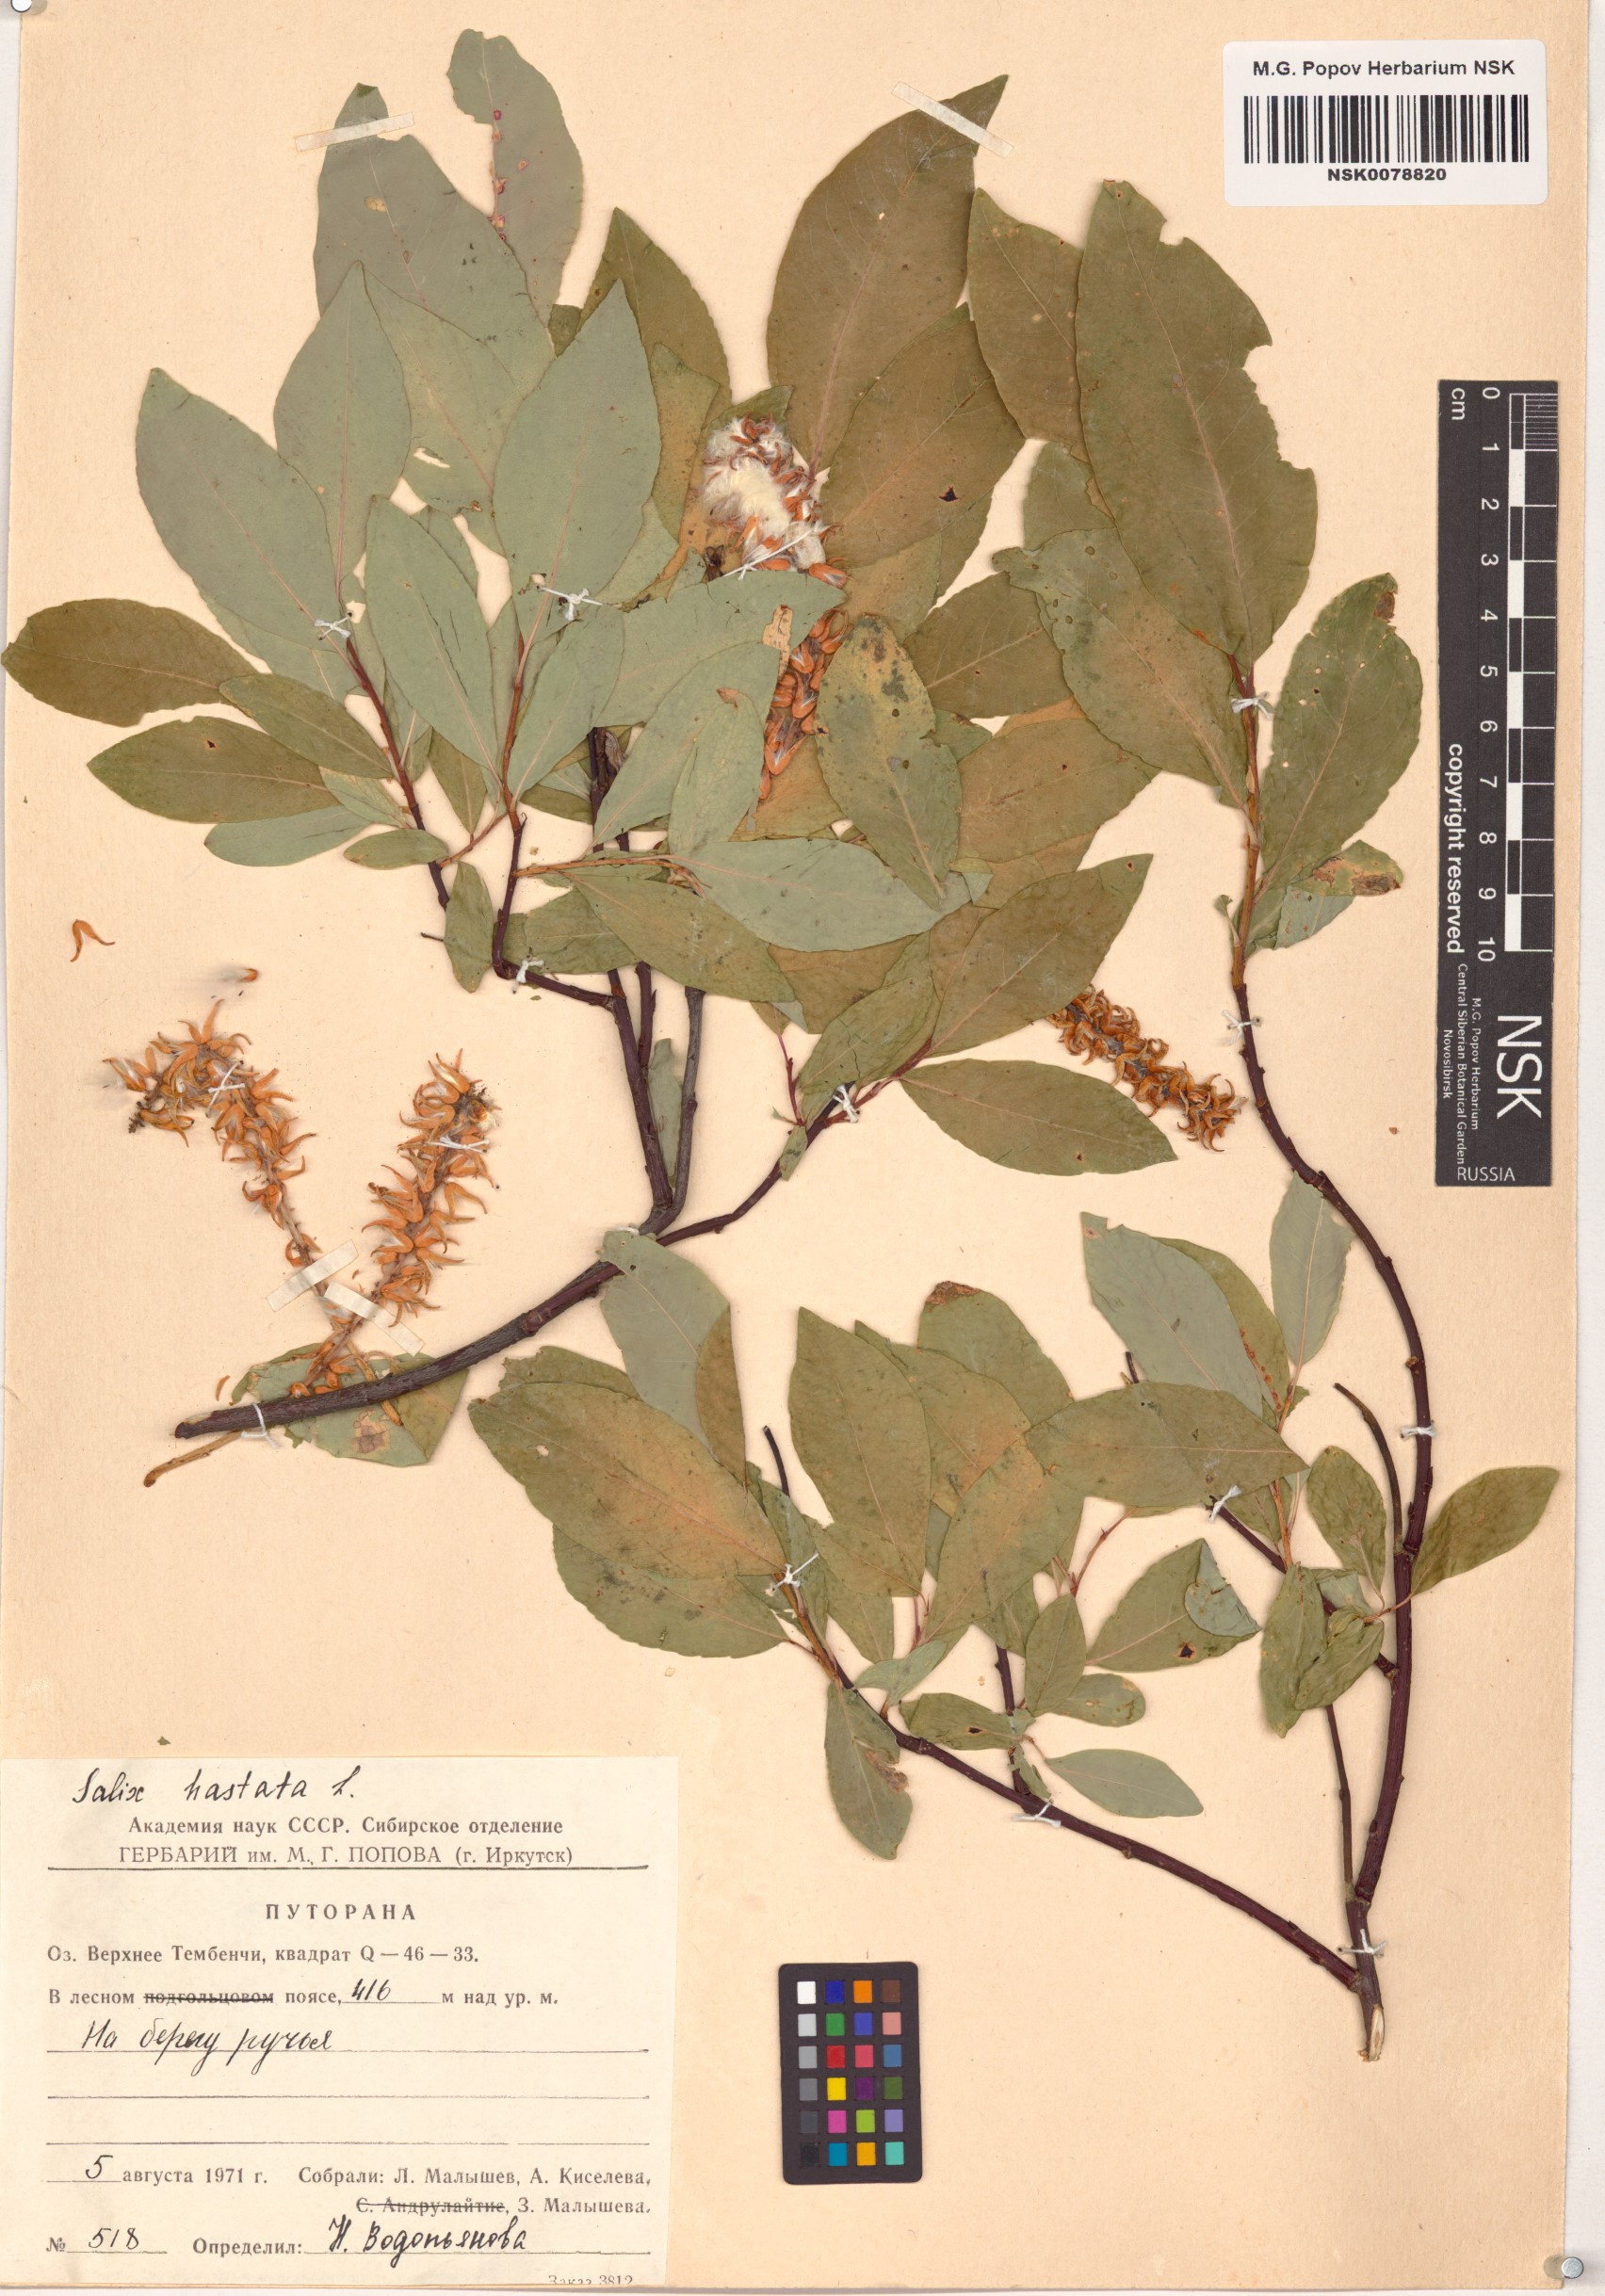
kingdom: Plantae
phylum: Tracheophyta
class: Magnoliopsida
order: Malpighiales
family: Salicaceae
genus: Salix
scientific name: Salix hastata
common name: Halberd willow
